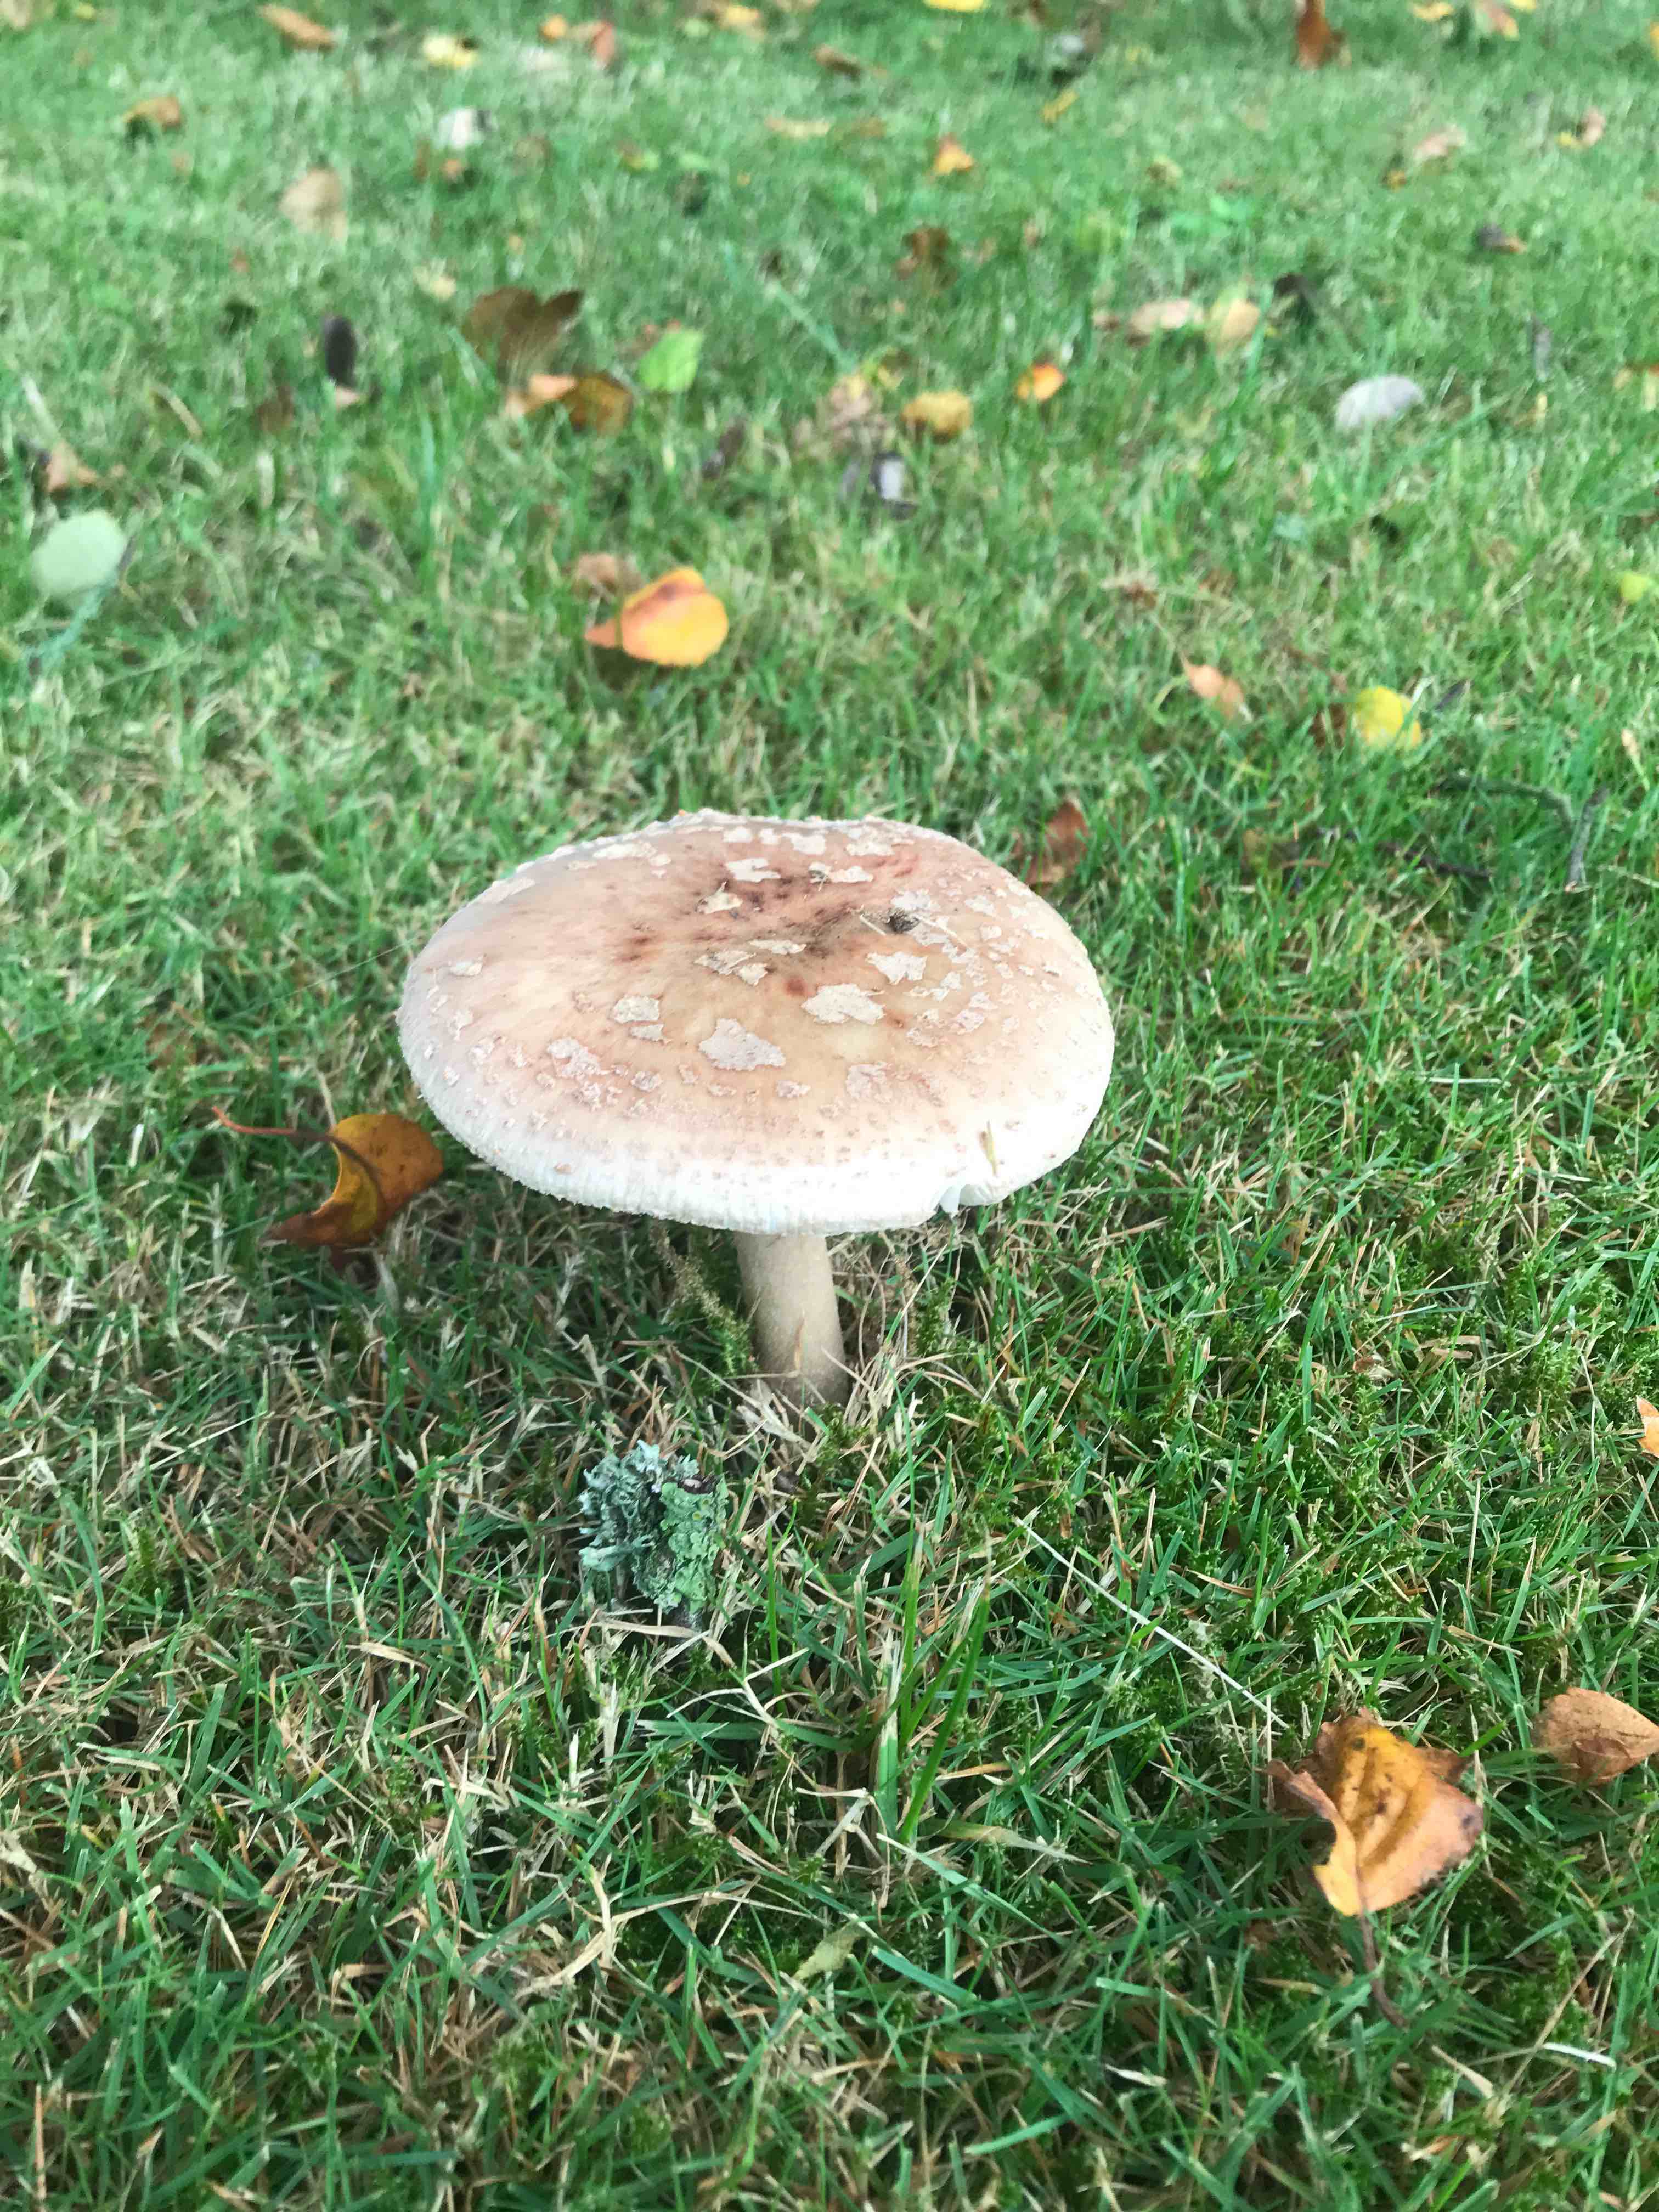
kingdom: Fungi
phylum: Basidiomycota
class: Agaricomycetes
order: Agaricales
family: Amanitaceae
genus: Amanita
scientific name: Amanita rubescens
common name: rødmende fluesvamp
